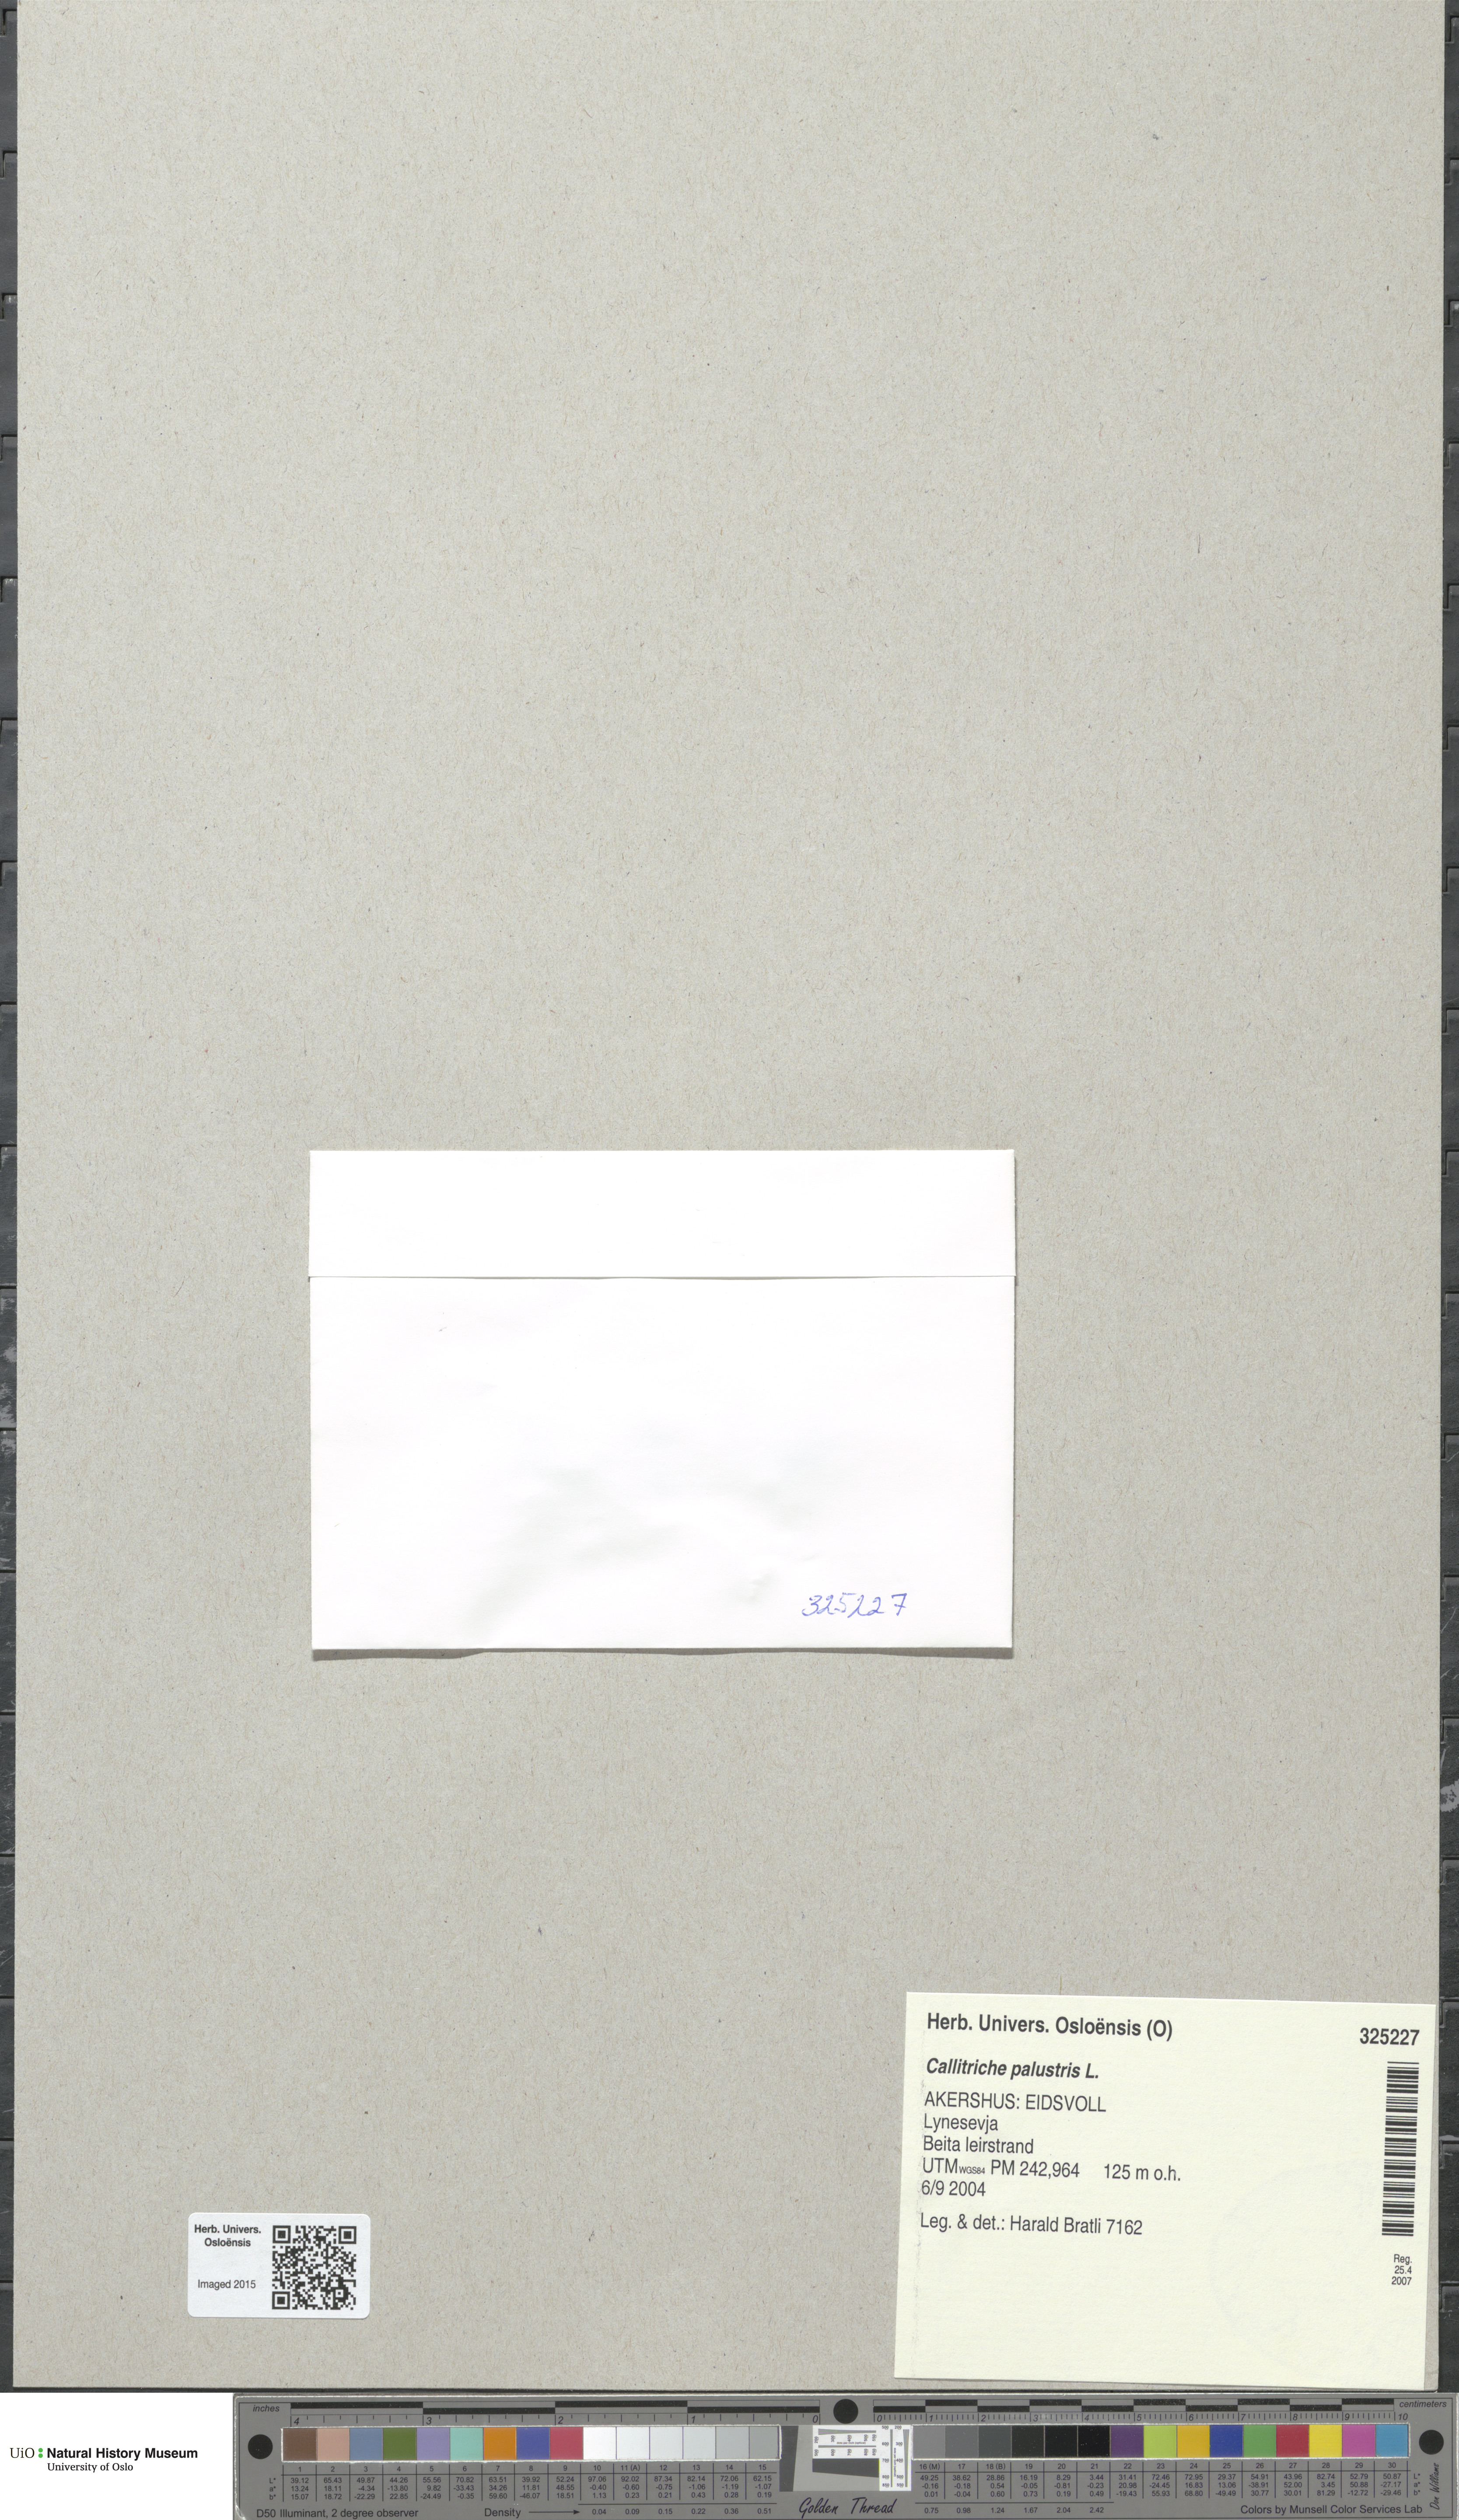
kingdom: Plantae
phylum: Tracheophyta
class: Magnoliopsida
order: Lamiales
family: Plantaginaceae
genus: Callitriche
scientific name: Callitriche palustris
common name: Spring water-starwort
